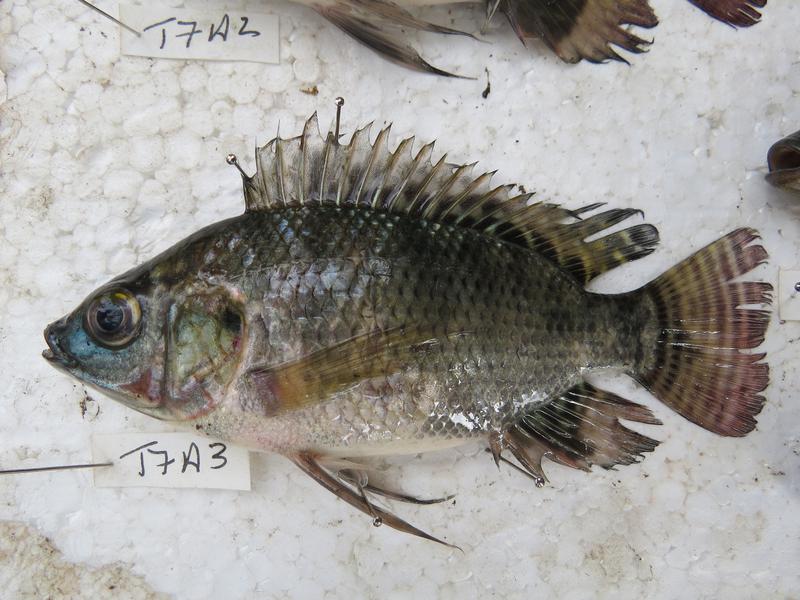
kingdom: Animalia
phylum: Chordata
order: Perciformes
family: Cichlidae
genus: Oreochromis
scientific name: Oreochromis niloticus
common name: Nile tilapia
